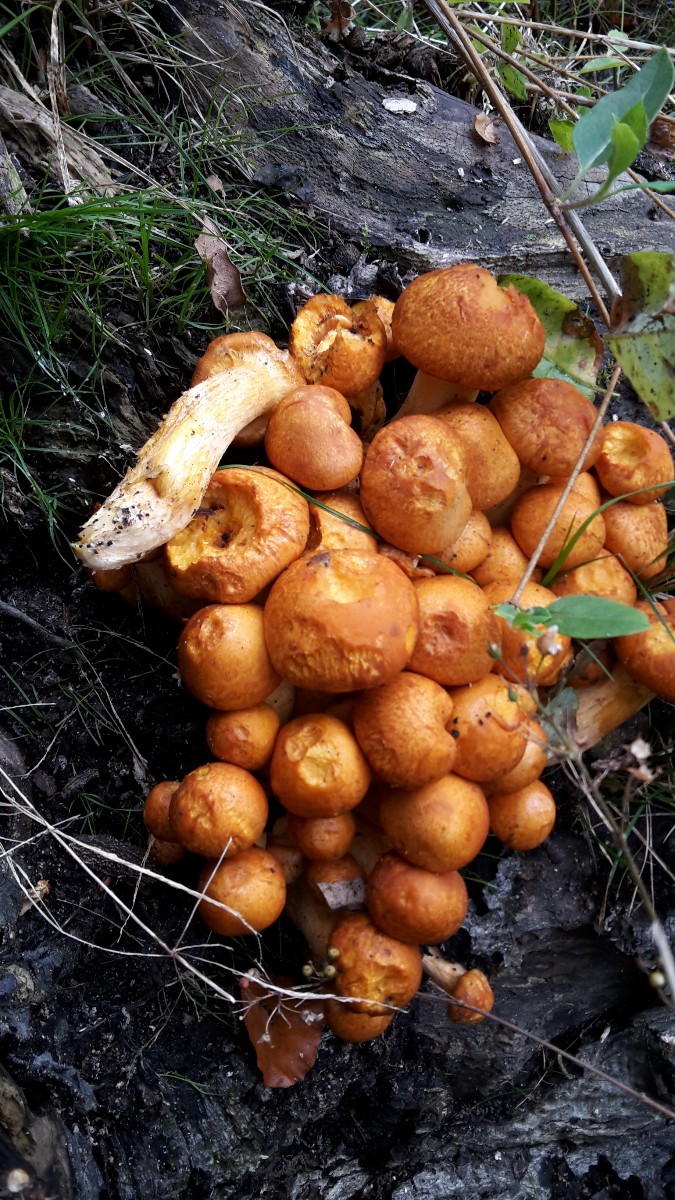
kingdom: Fungi
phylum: Basidiomycota
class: Agaricomycetes
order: Agaricales
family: Hymenogastraceae
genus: Gymnopilus
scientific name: Gymnopilus spectabilis
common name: fibret flammehat
